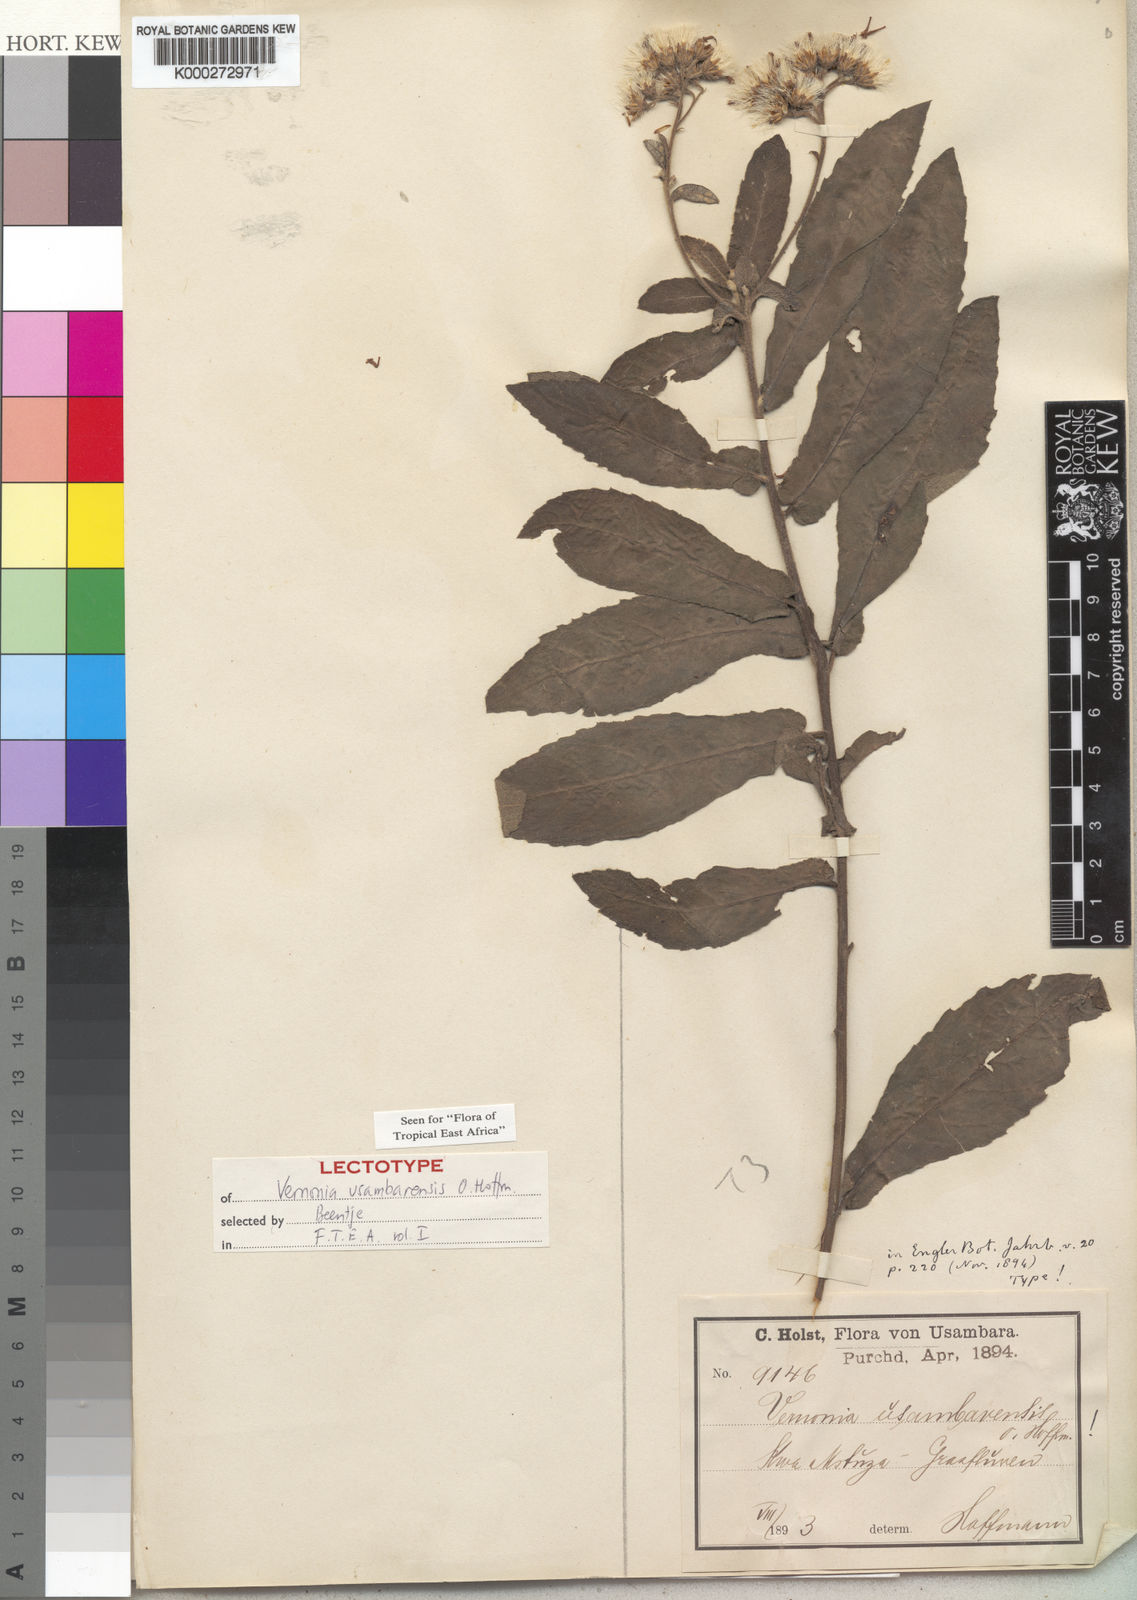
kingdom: Plantae
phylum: Tracheophyta
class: Magnoliopsida
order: Asterales
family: Asteraceae
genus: Jeffreycia
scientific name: Jeffreycia usambarensis
